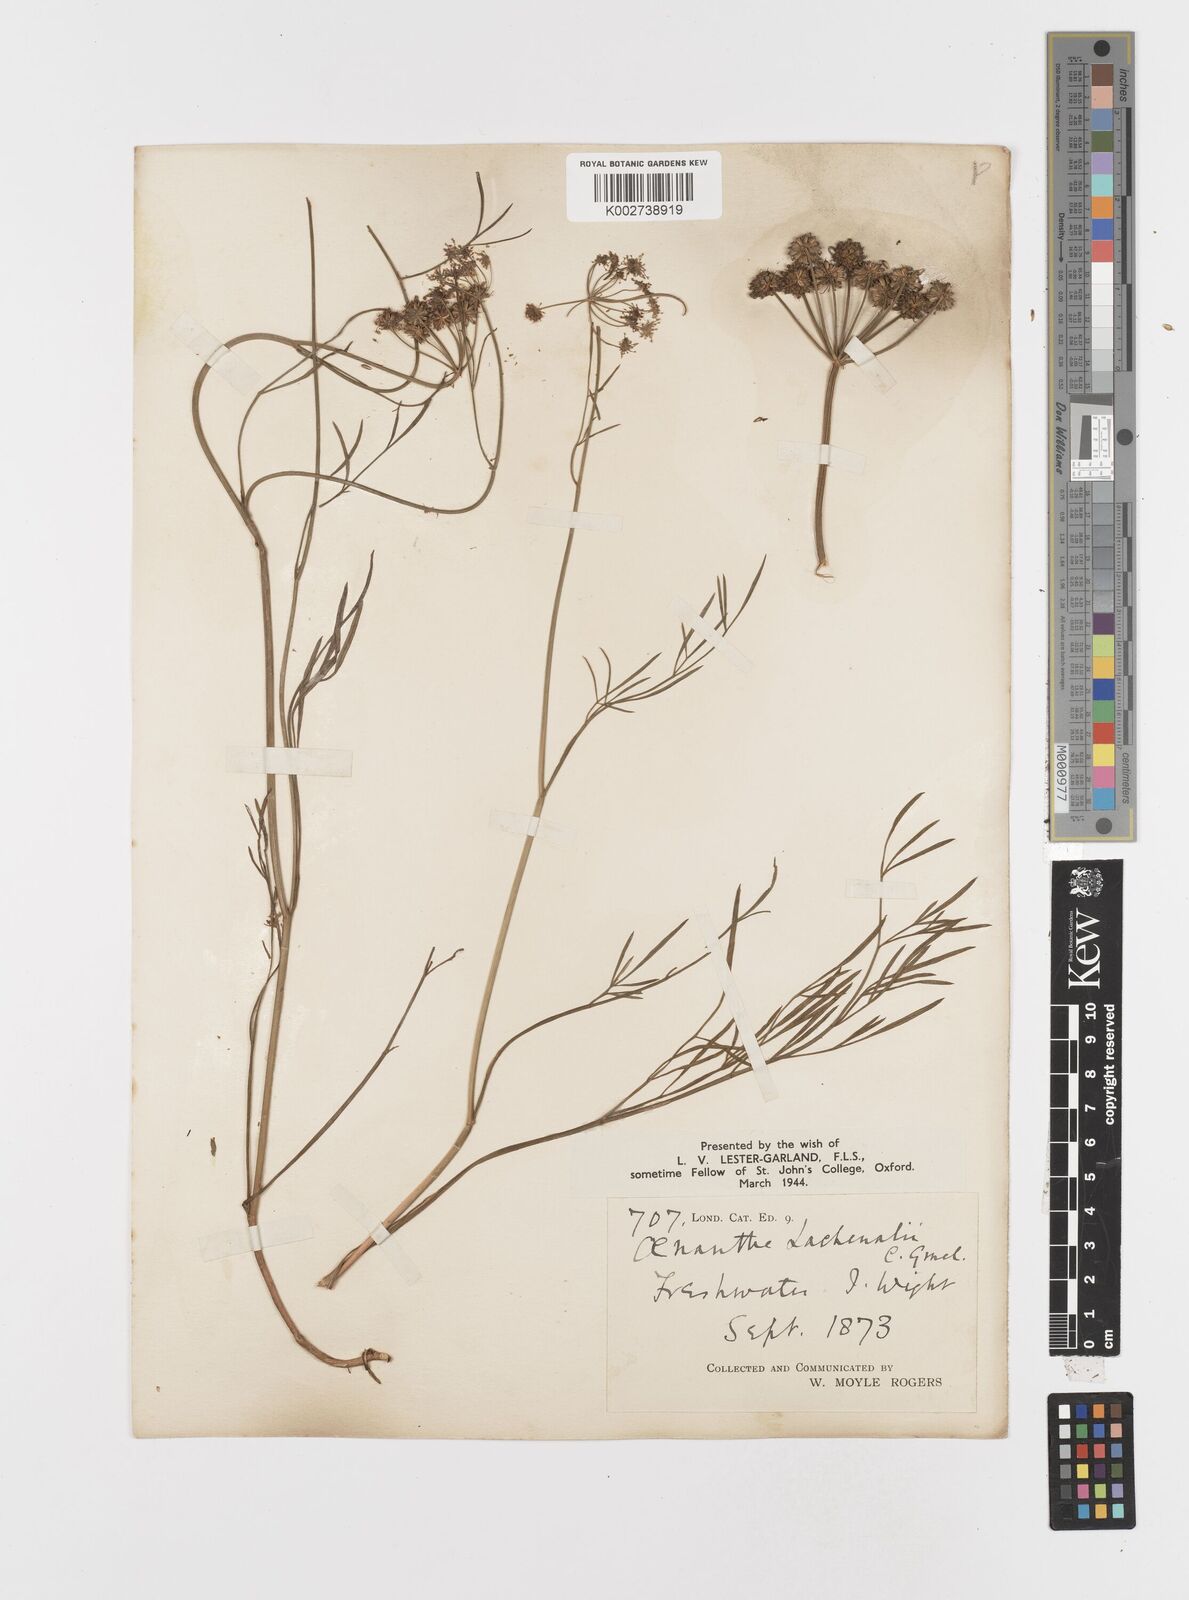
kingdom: Plantae
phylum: Tracheophyta
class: Magnoliopsida
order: Apiales
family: Apiaceae
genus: Oenanthe
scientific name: Oenanthe lachenalii
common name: Parsley water-dropwort
